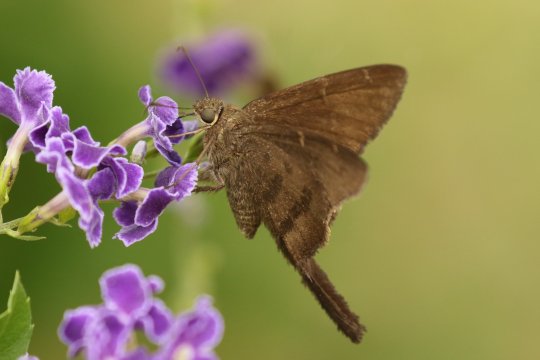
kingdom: Animalia
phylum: Arthropoda
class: Insecta
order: Lepidoptera
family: Hesperiidae
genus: Urbanus
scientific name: Urbanus procne
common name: Brown Longtail
